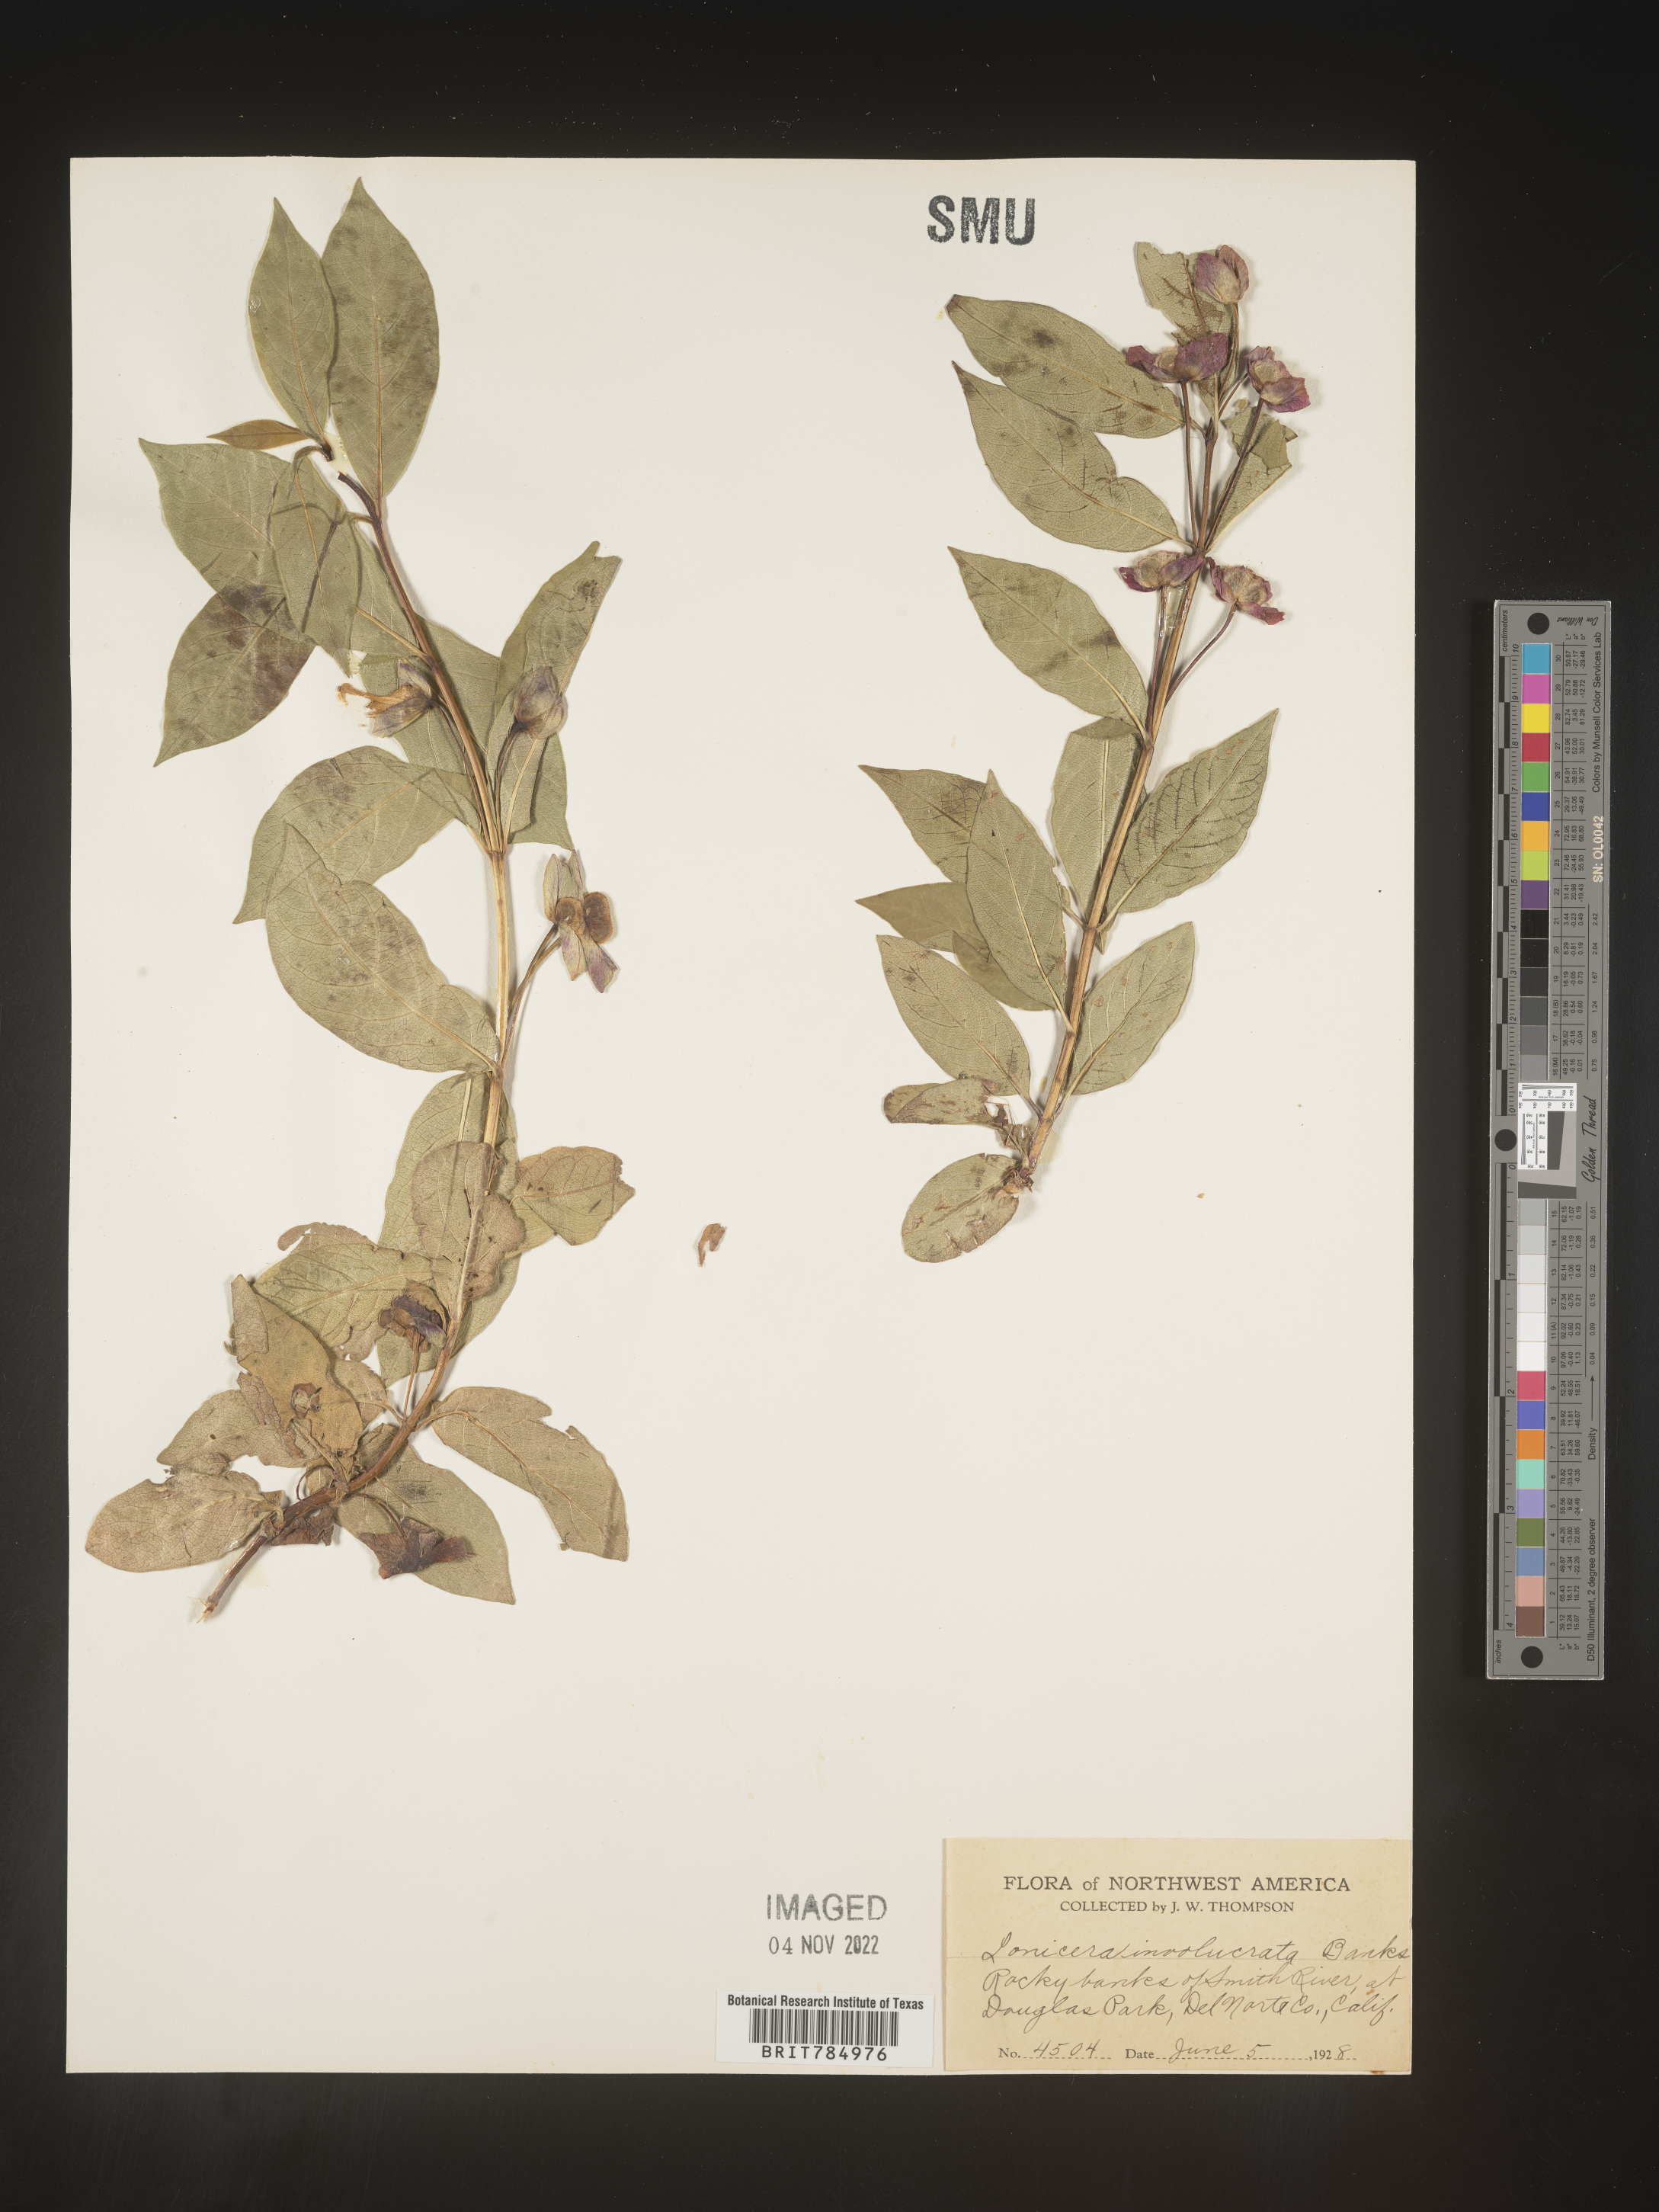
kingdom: Plantae
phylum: Tracheophyta
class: Magnoliopsida
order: Dipsacales
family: Caprifoliaceae
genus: Lonicera
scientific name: Lonicera involucrata
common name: Californian honeysuckle
